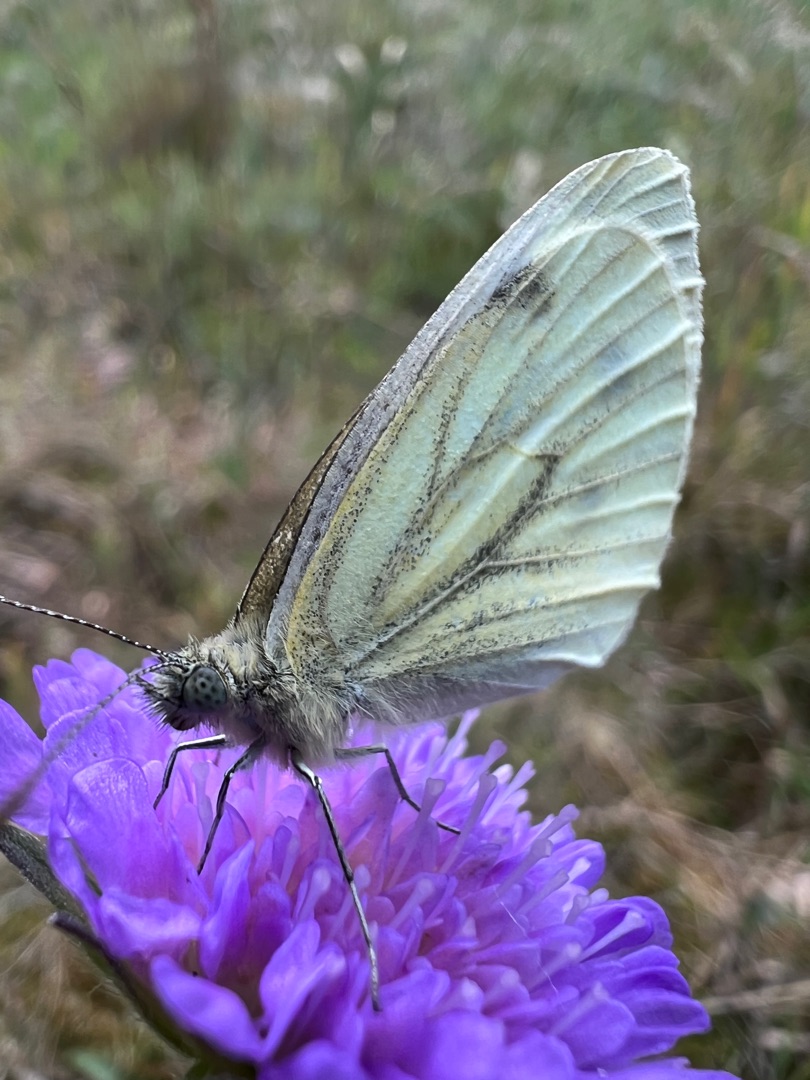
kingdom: Animalia
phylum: Arthropoda
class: Insecta
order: Lepidoptera
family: Pieridae
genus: Pieris
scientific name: Pieris napi
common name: Grønåret kålsommerfugl
